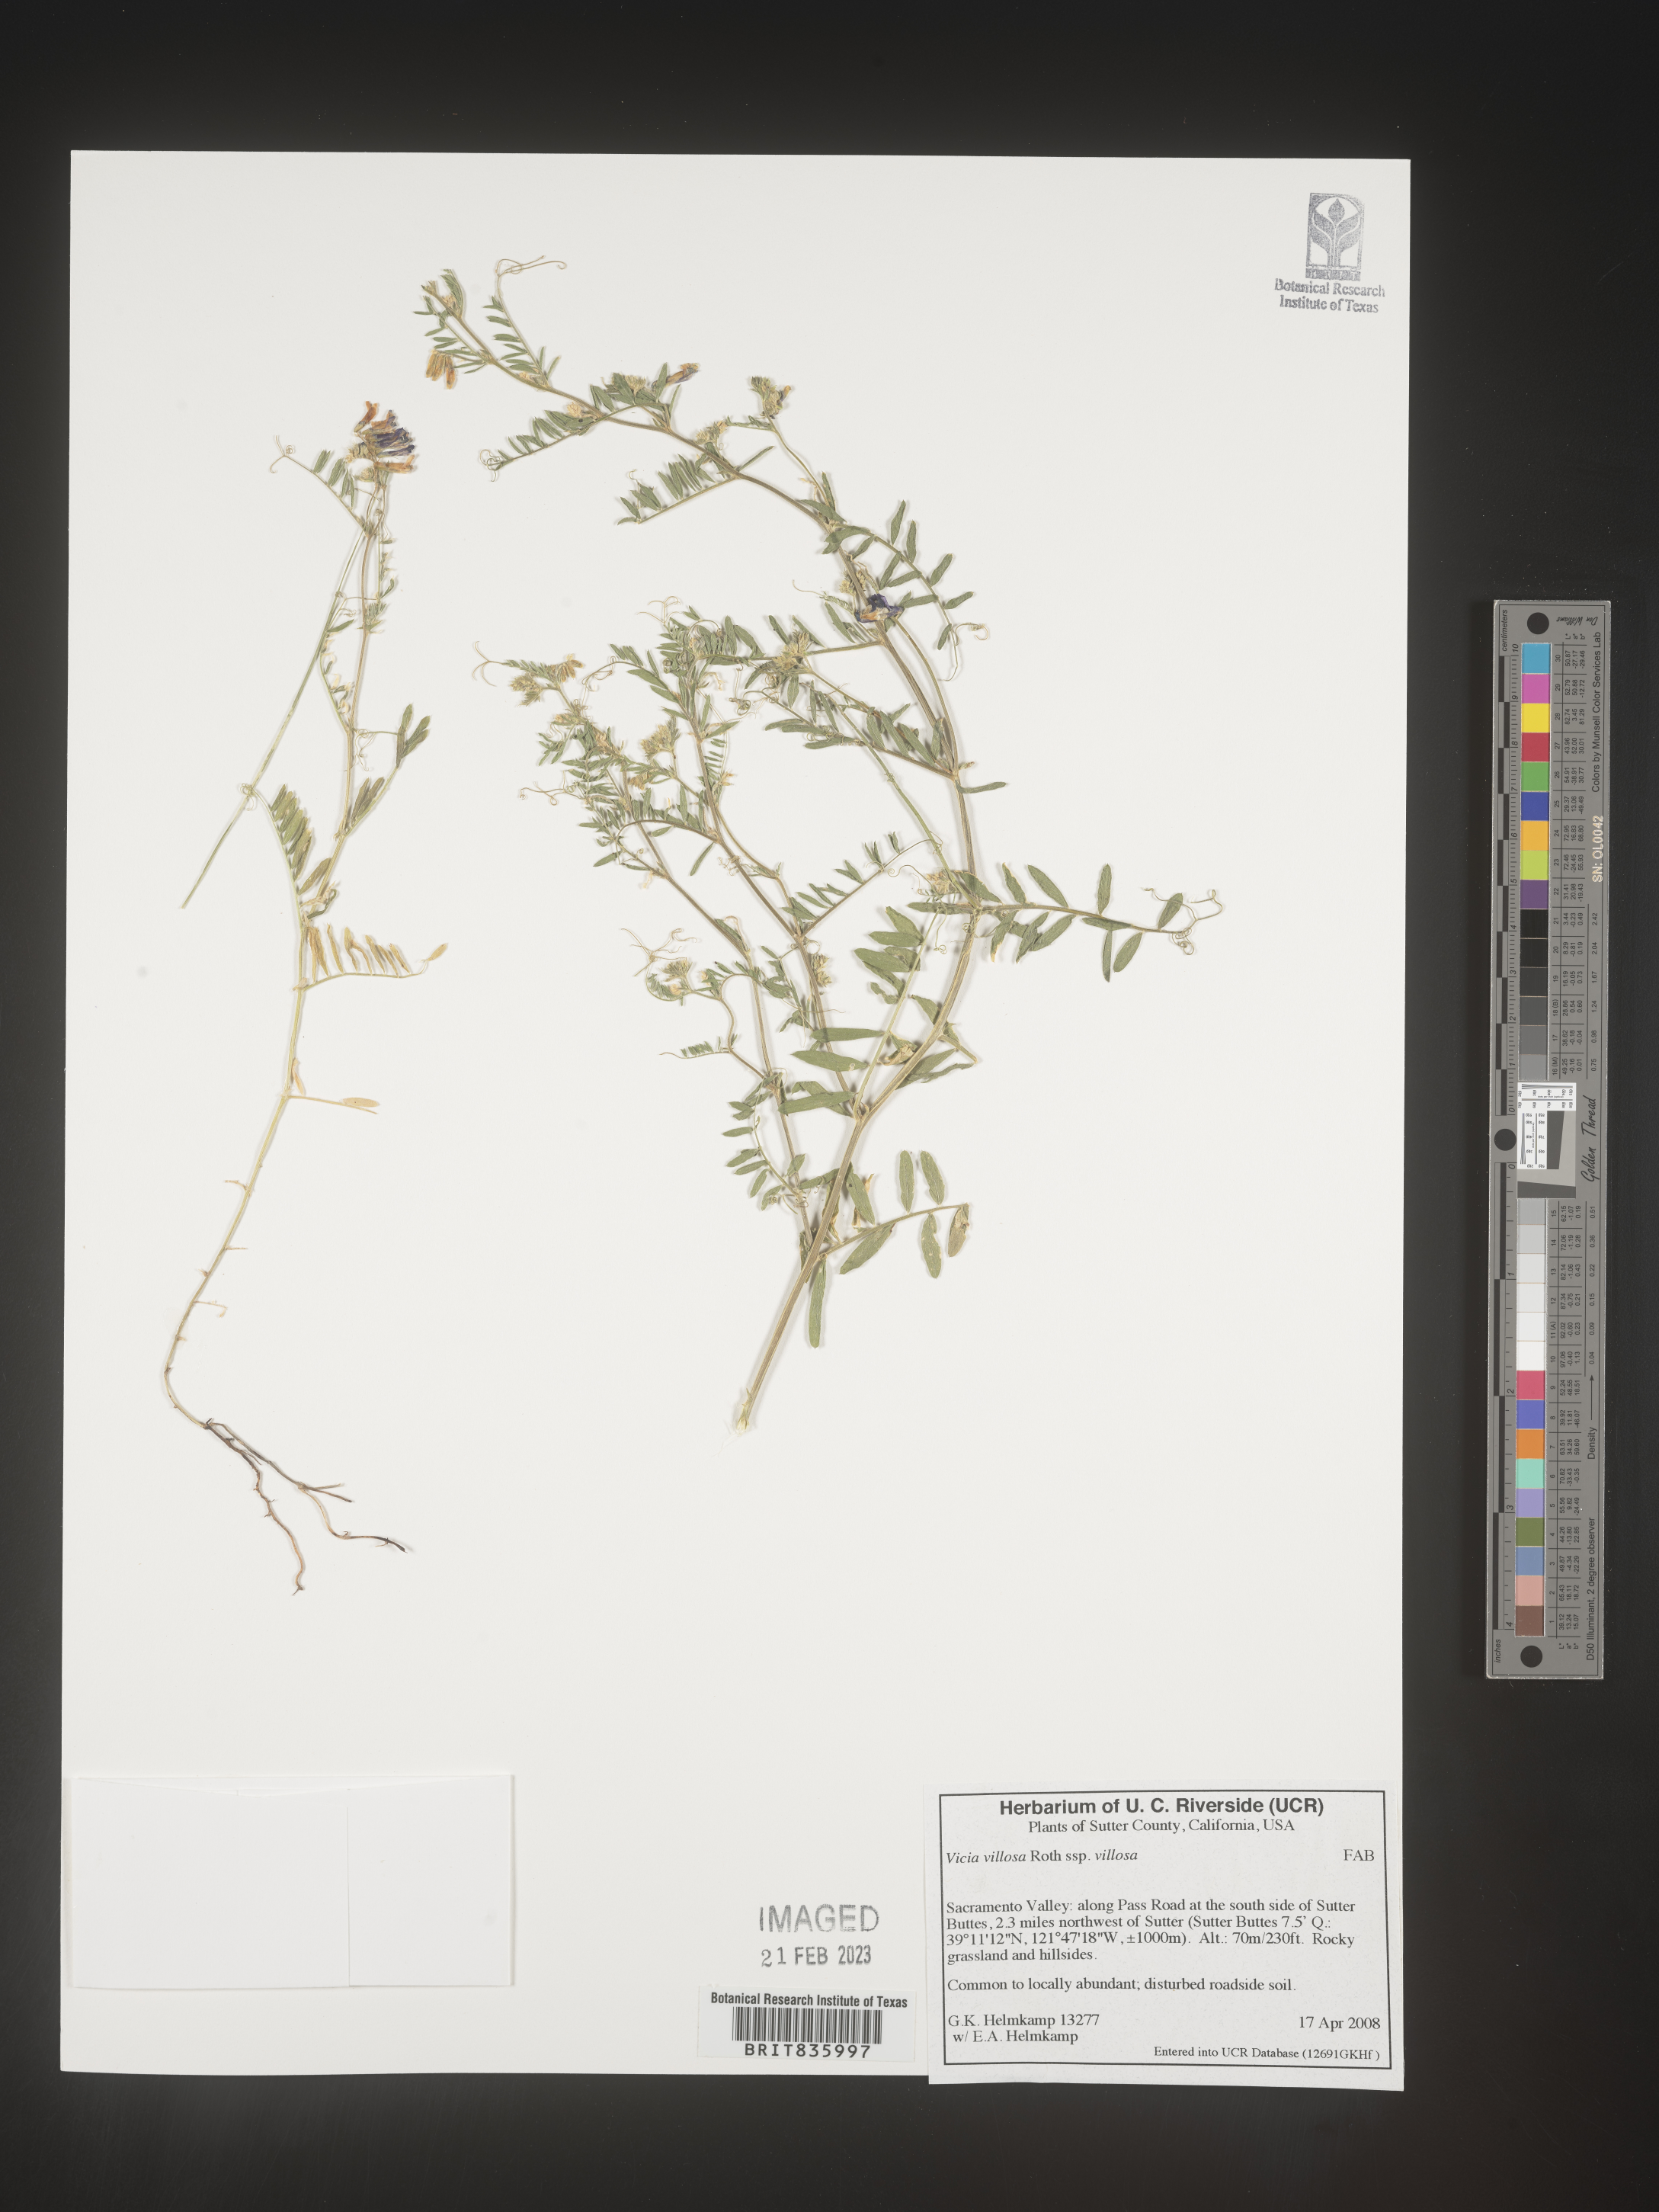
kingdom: Plantae
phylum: Tracheophyta
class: Magnoliopsida
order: Fabales
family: Fabaceae
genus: Vicia
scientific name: Vicia villosa
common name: Fodder vetch
